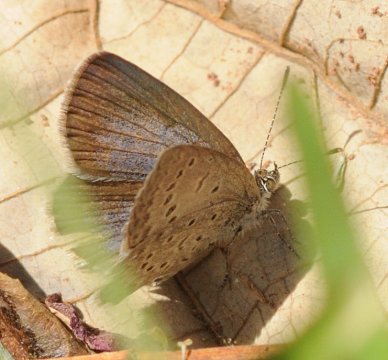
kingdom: Animalia
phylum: Arthropoda
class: Insecta
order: Lepidoptera
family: Lycaenidae
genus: Zizeeria
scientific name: Zizeeria knysna
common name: Dark Grass Blue
